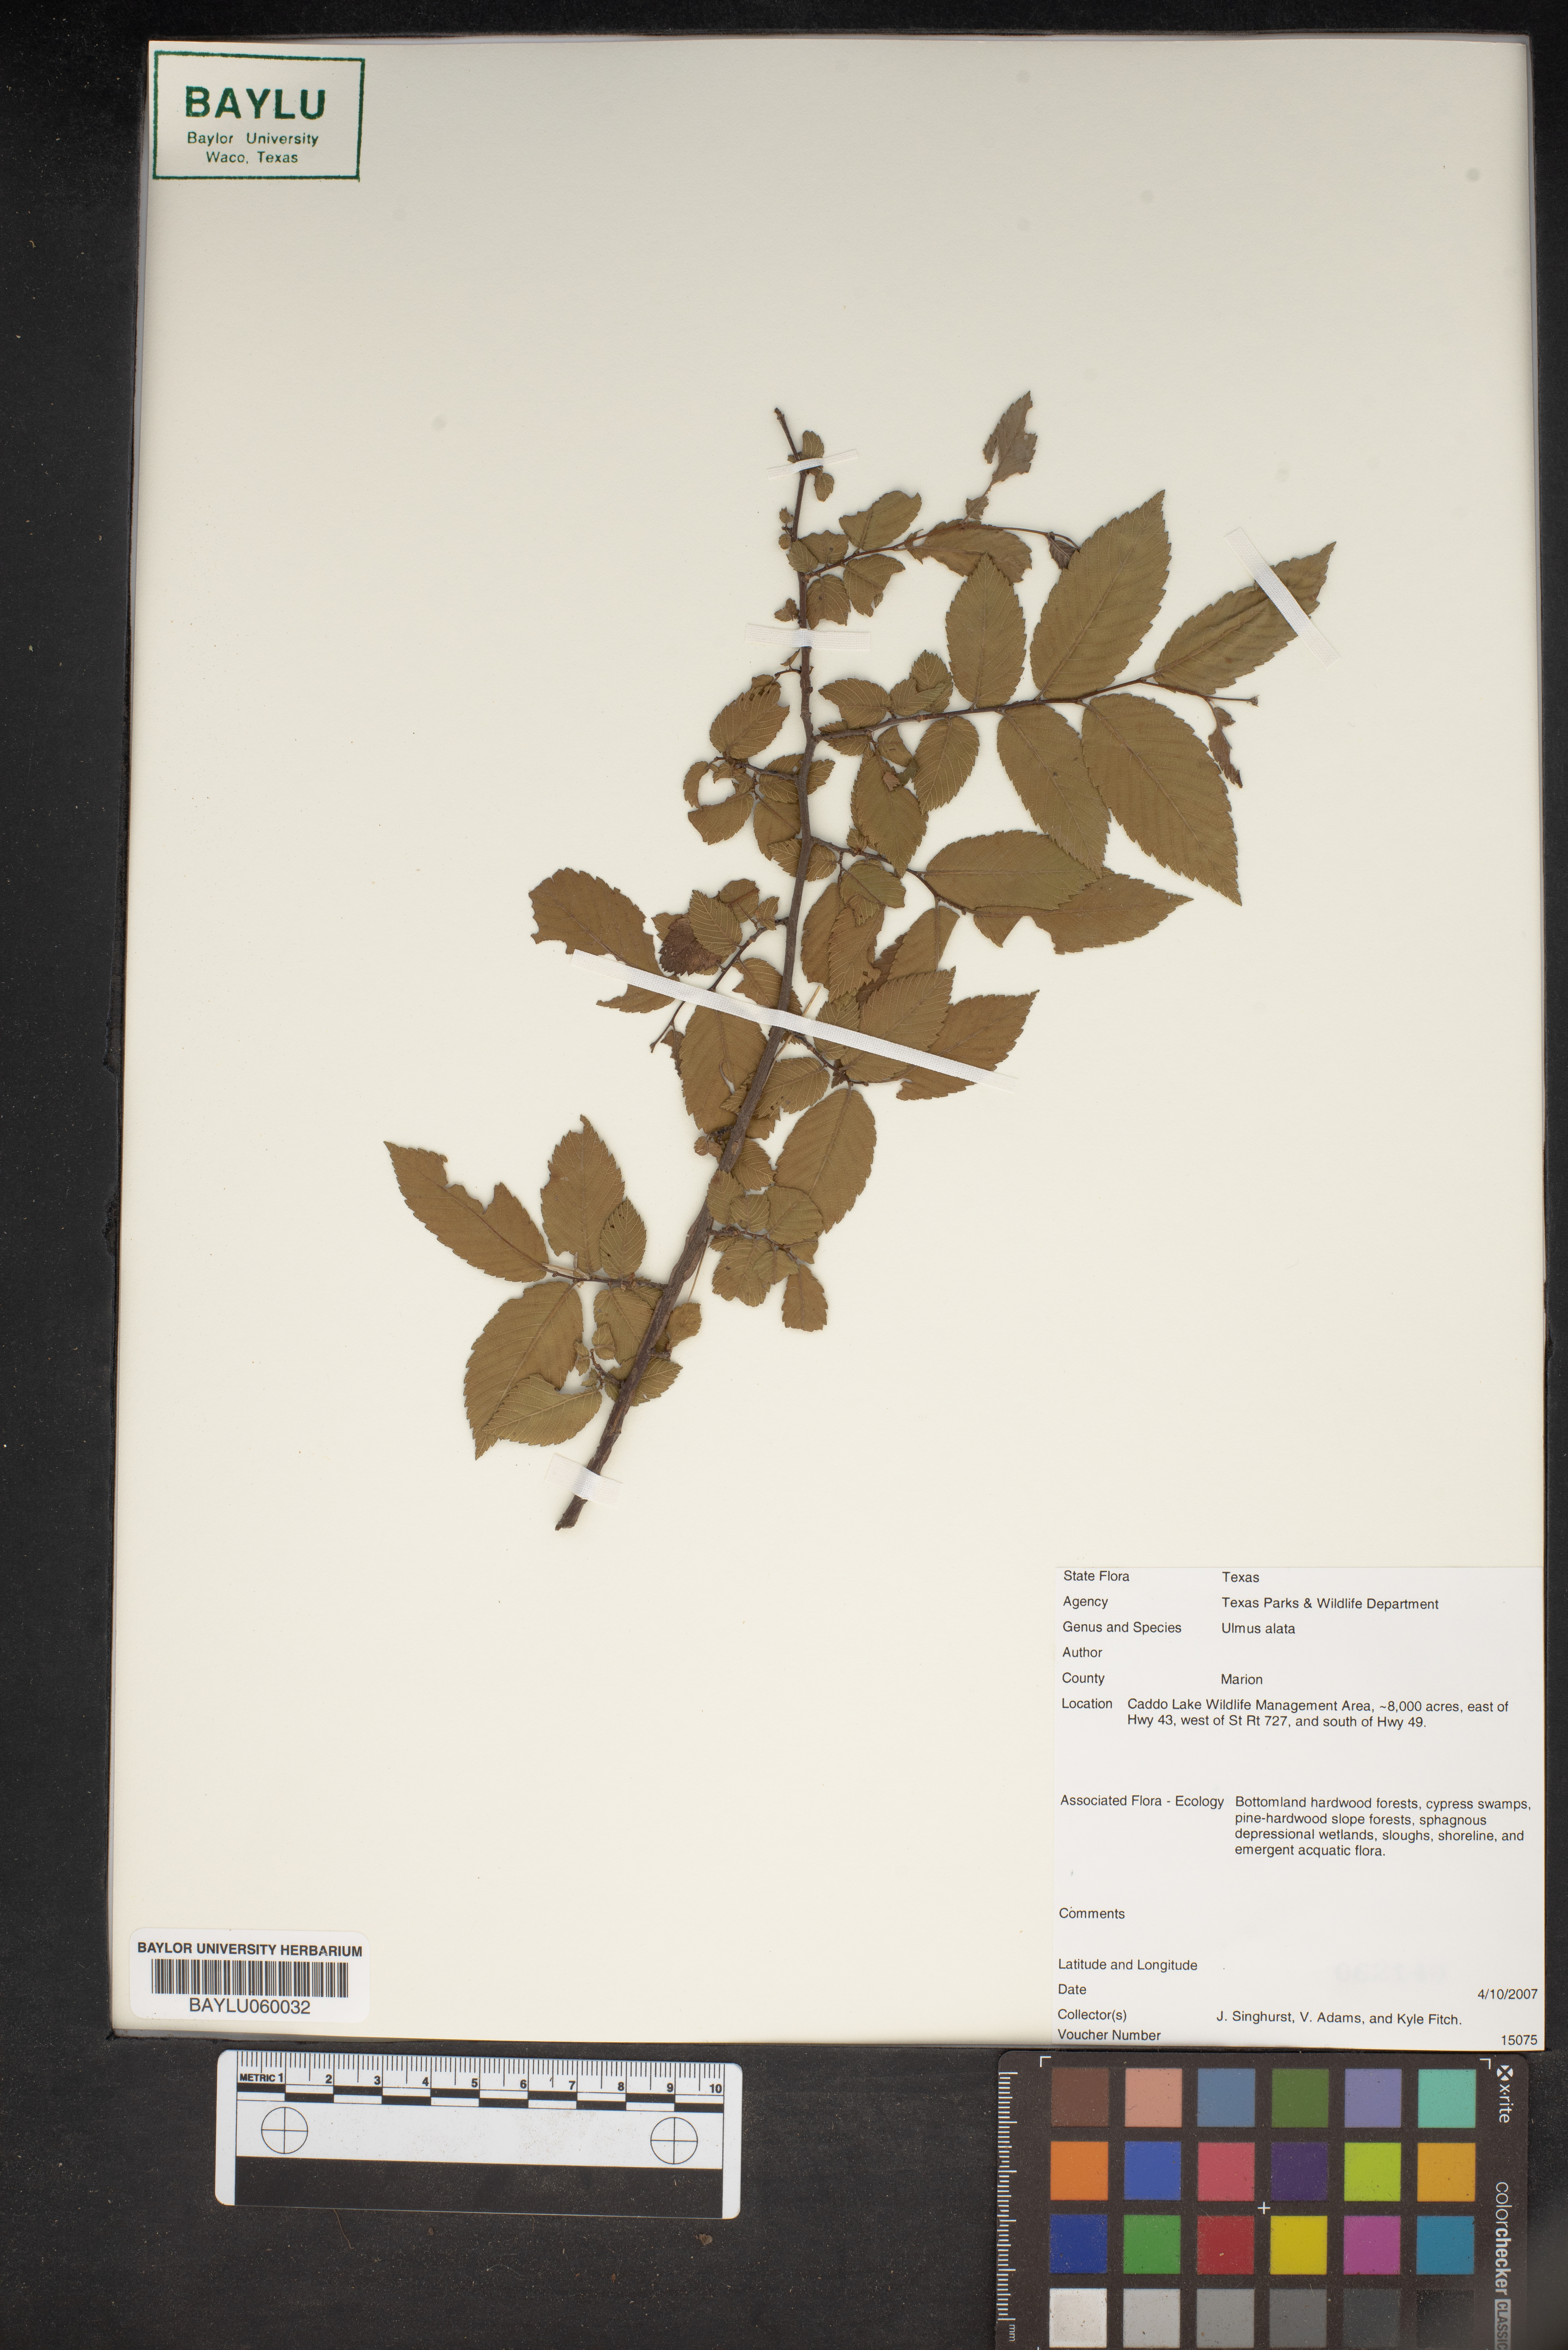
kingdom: Plantae
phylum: Tracheophyta
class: Magnoliopsida
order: Rosales
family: Ulmaceae
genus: Ulmus
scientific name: Ulmus alata
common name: Winged elm
